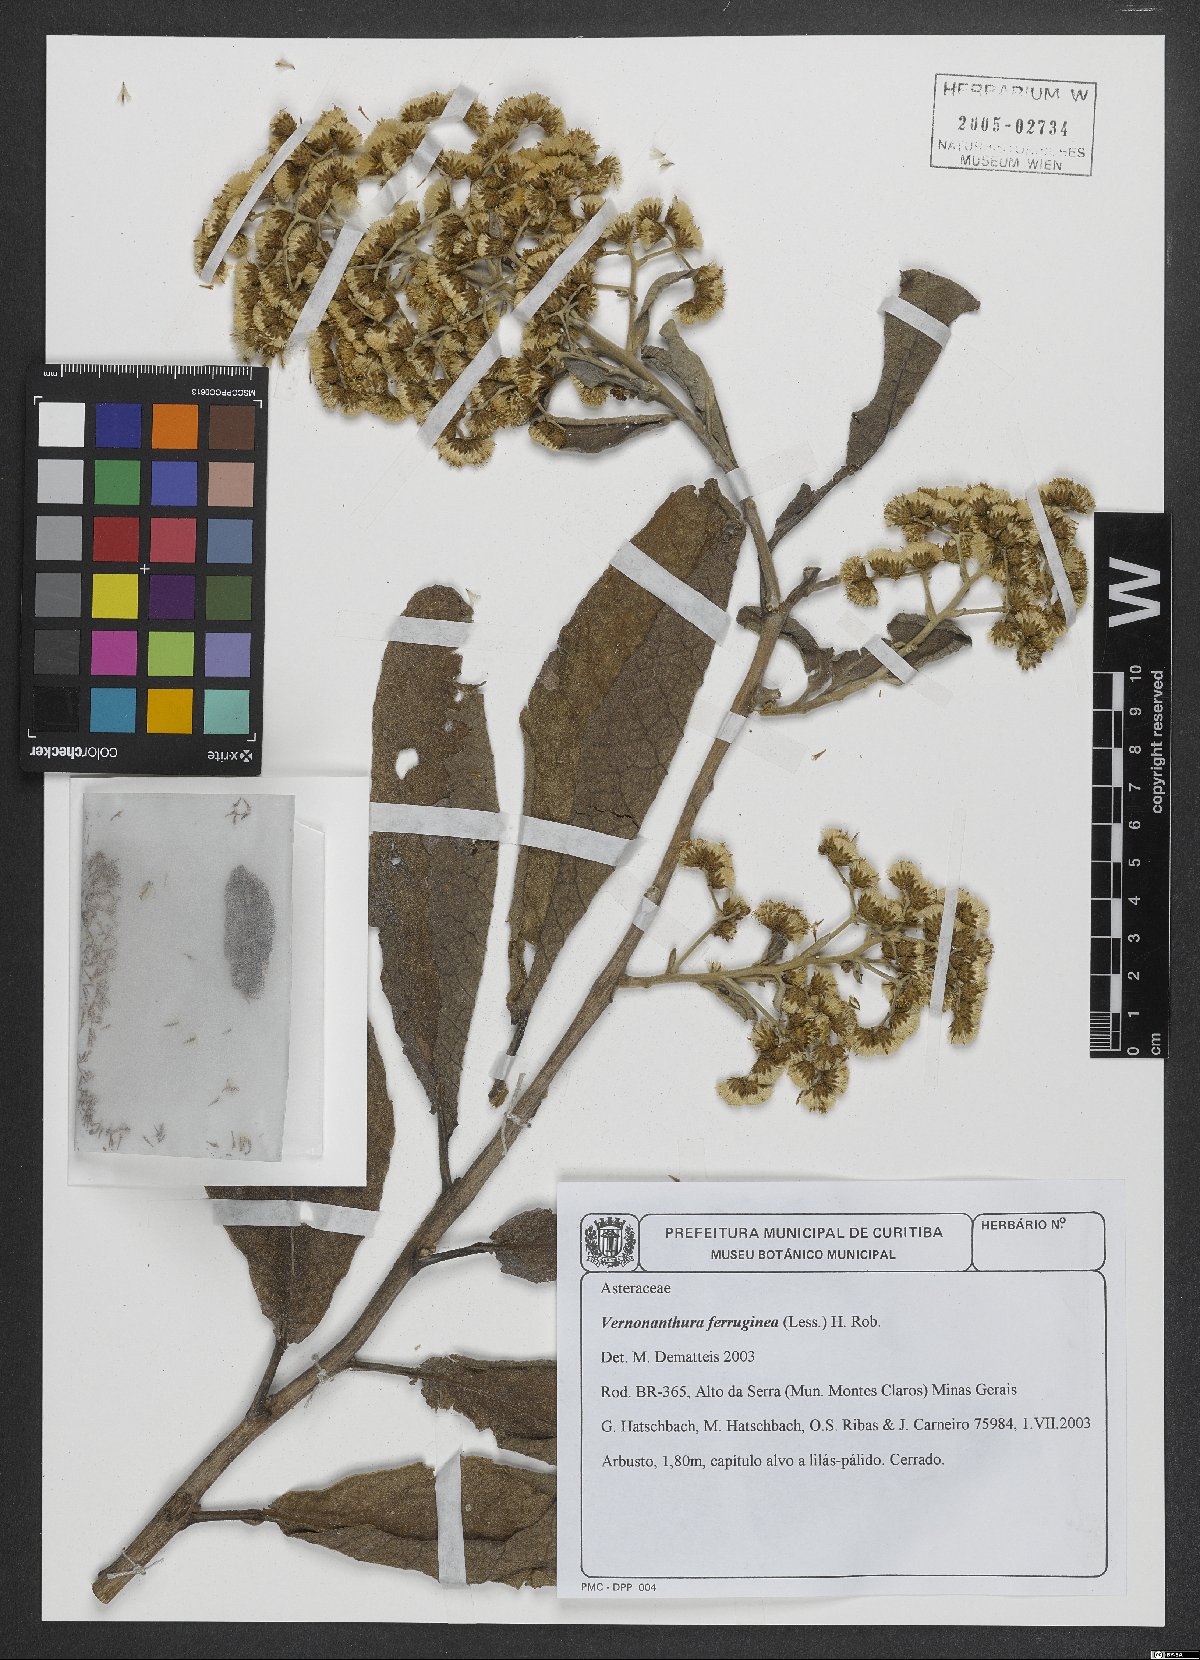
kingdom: Plantae
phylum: Tracheophyta
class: Magnoliopsida
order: Asterales
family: Asteraceae
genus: Vernonanthura
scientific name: Vernonanthura ferruginea
